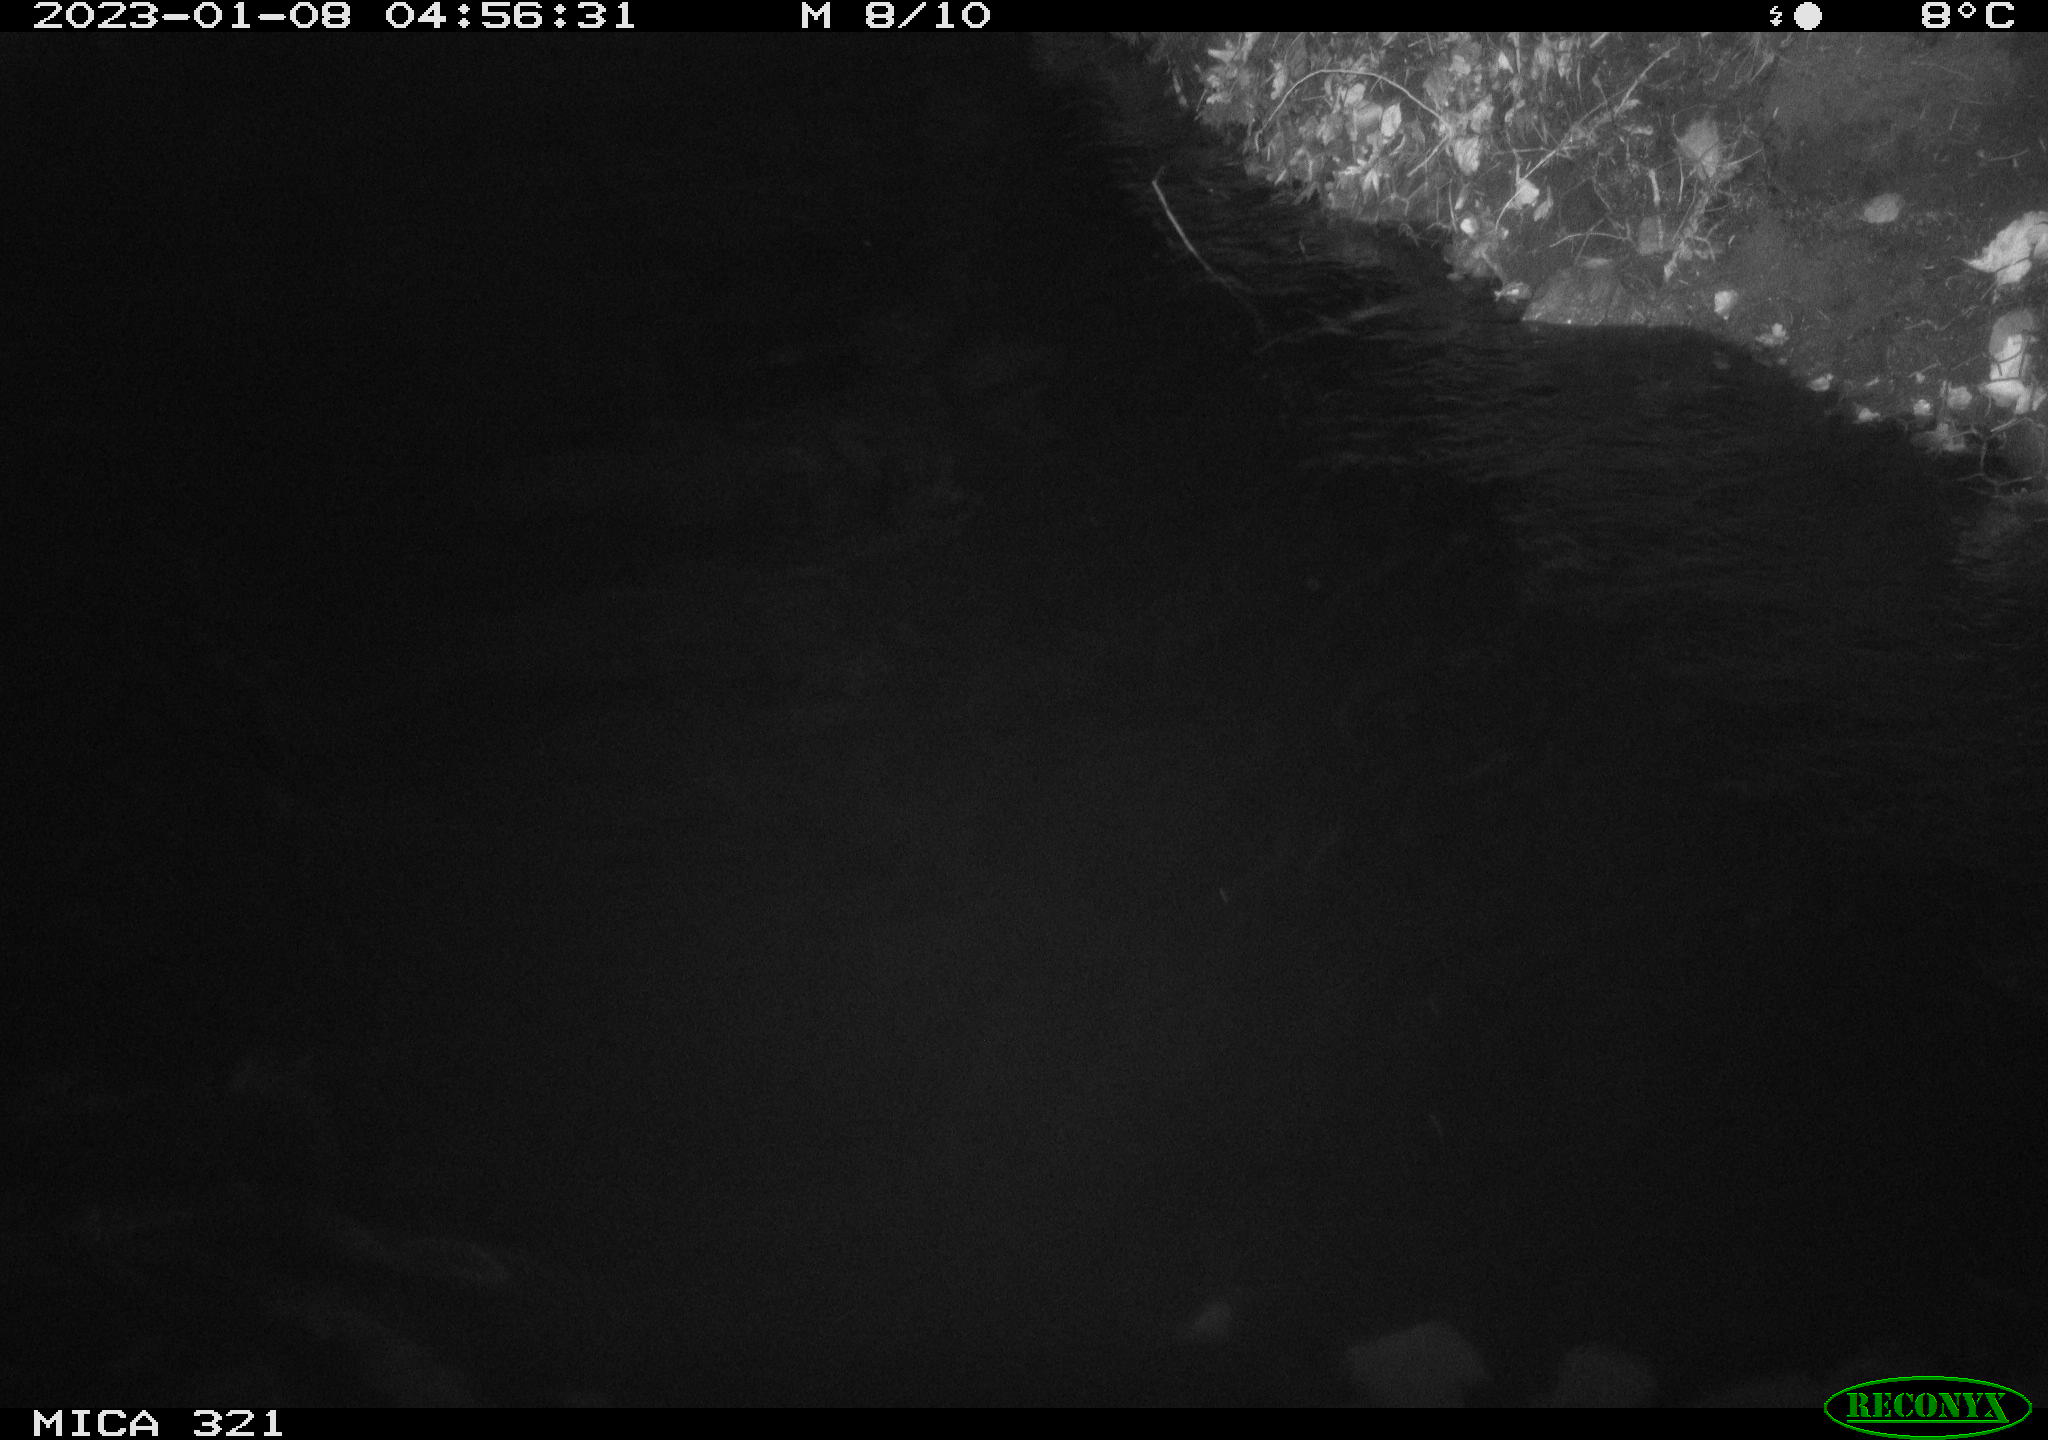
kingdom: Animalia
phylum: Chordata
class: Aves
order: Anseriformes
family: Anatidae
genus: Anas
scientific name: Anas
